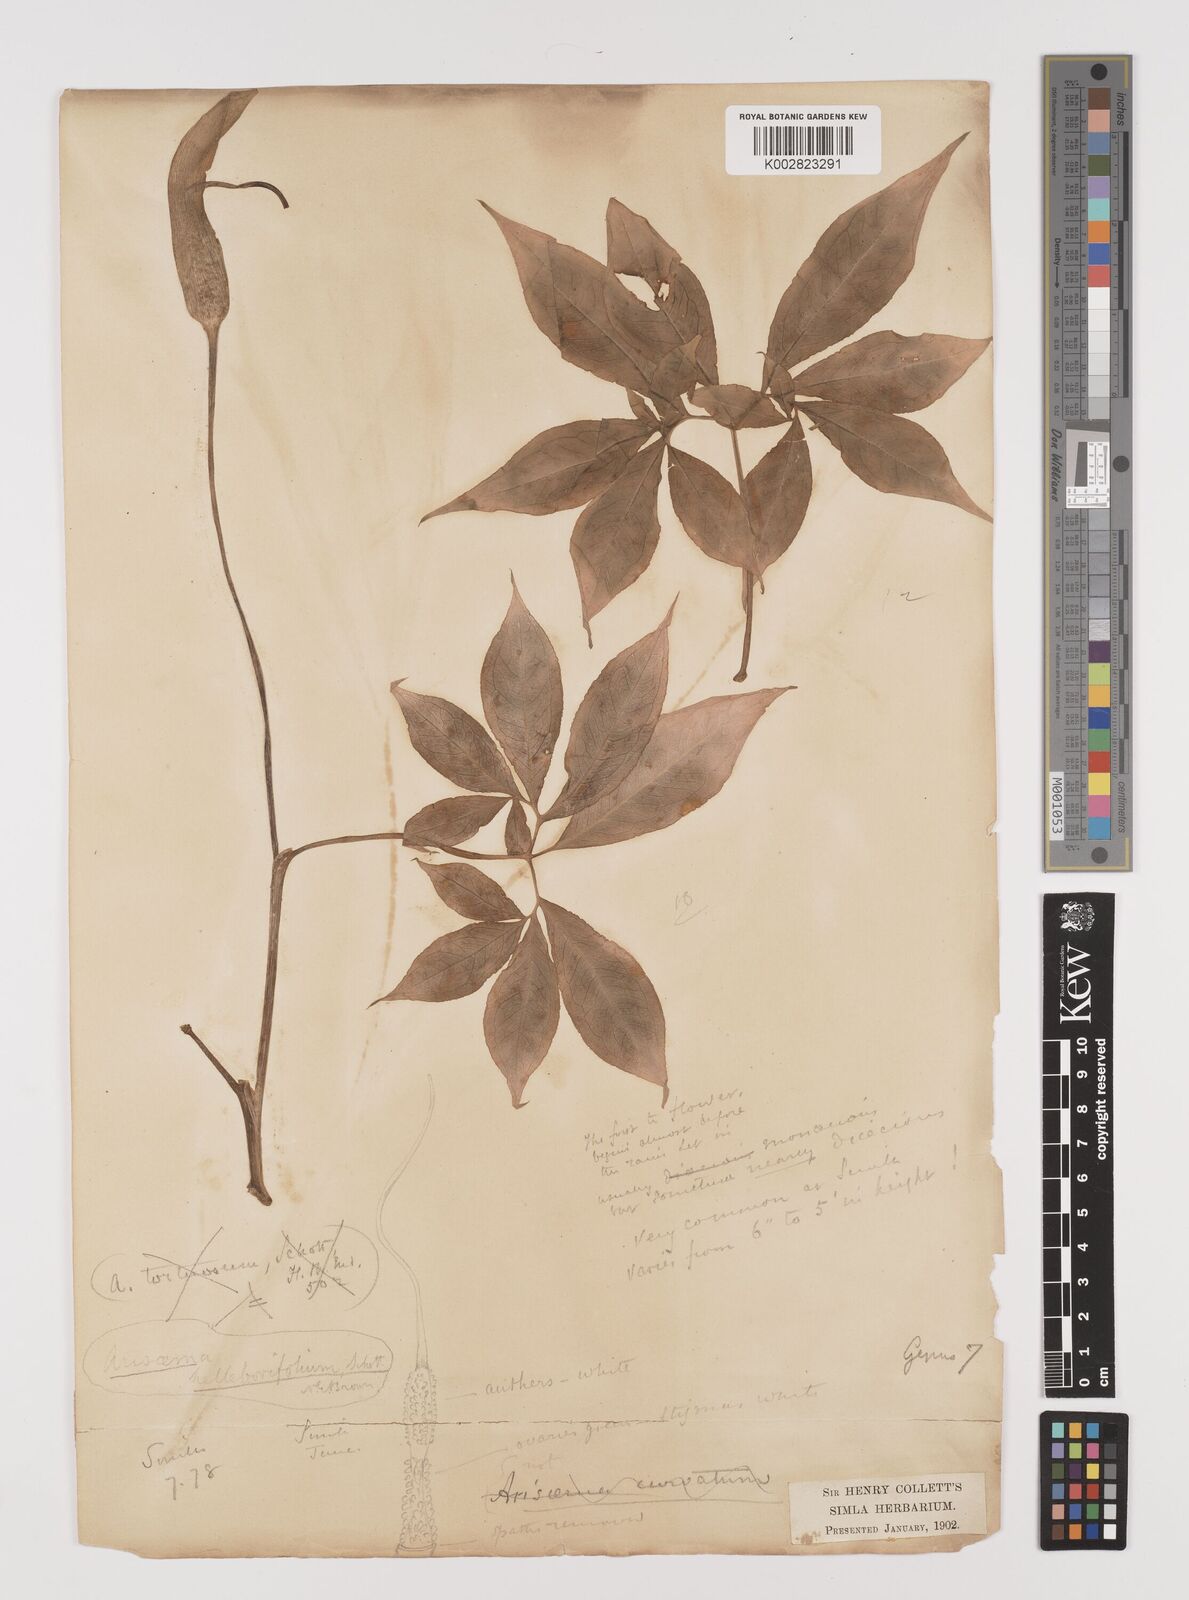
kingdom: Plantae
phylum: Tracheophyta
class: Liliopsida
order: Alismatales
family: Araceae
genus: Arisaema
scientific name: Arisaema tortuosum
